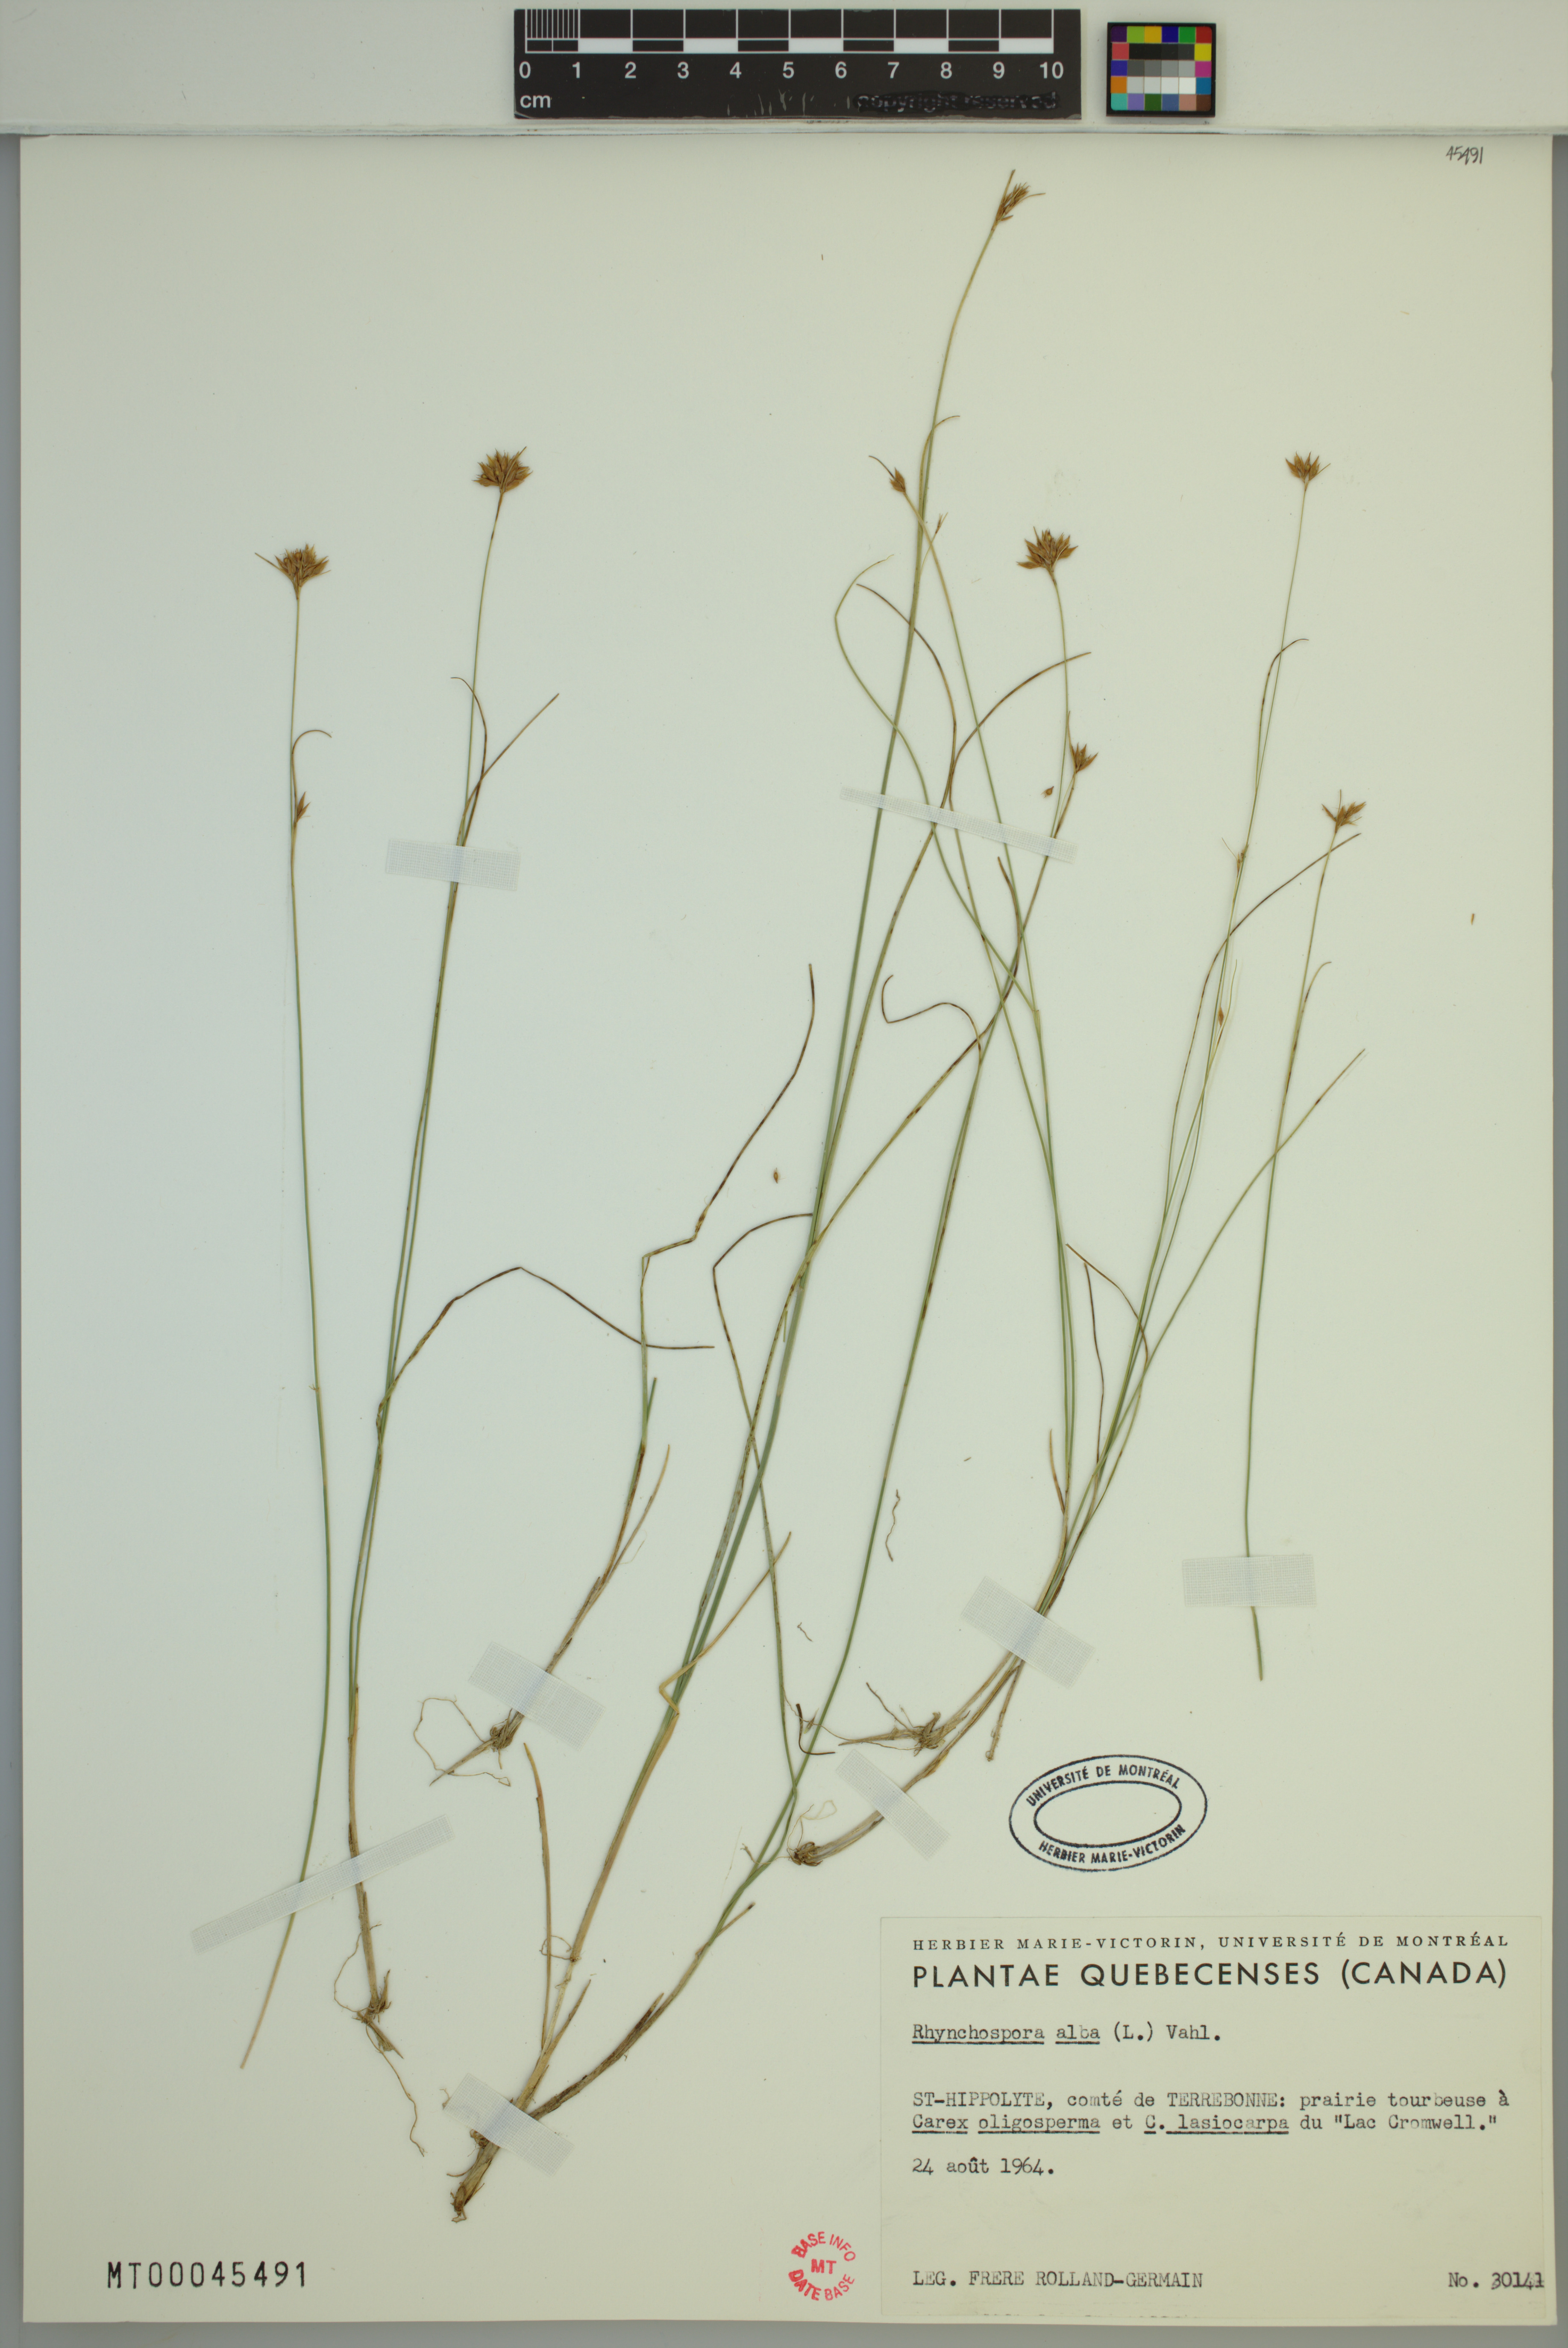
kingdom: Plantae
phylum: Tracheophyta
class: Liliopsida
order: Poales
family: Cyperaceae
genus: Rhynchospora
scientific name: Rhynchospora alba
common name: White beak-sedge
